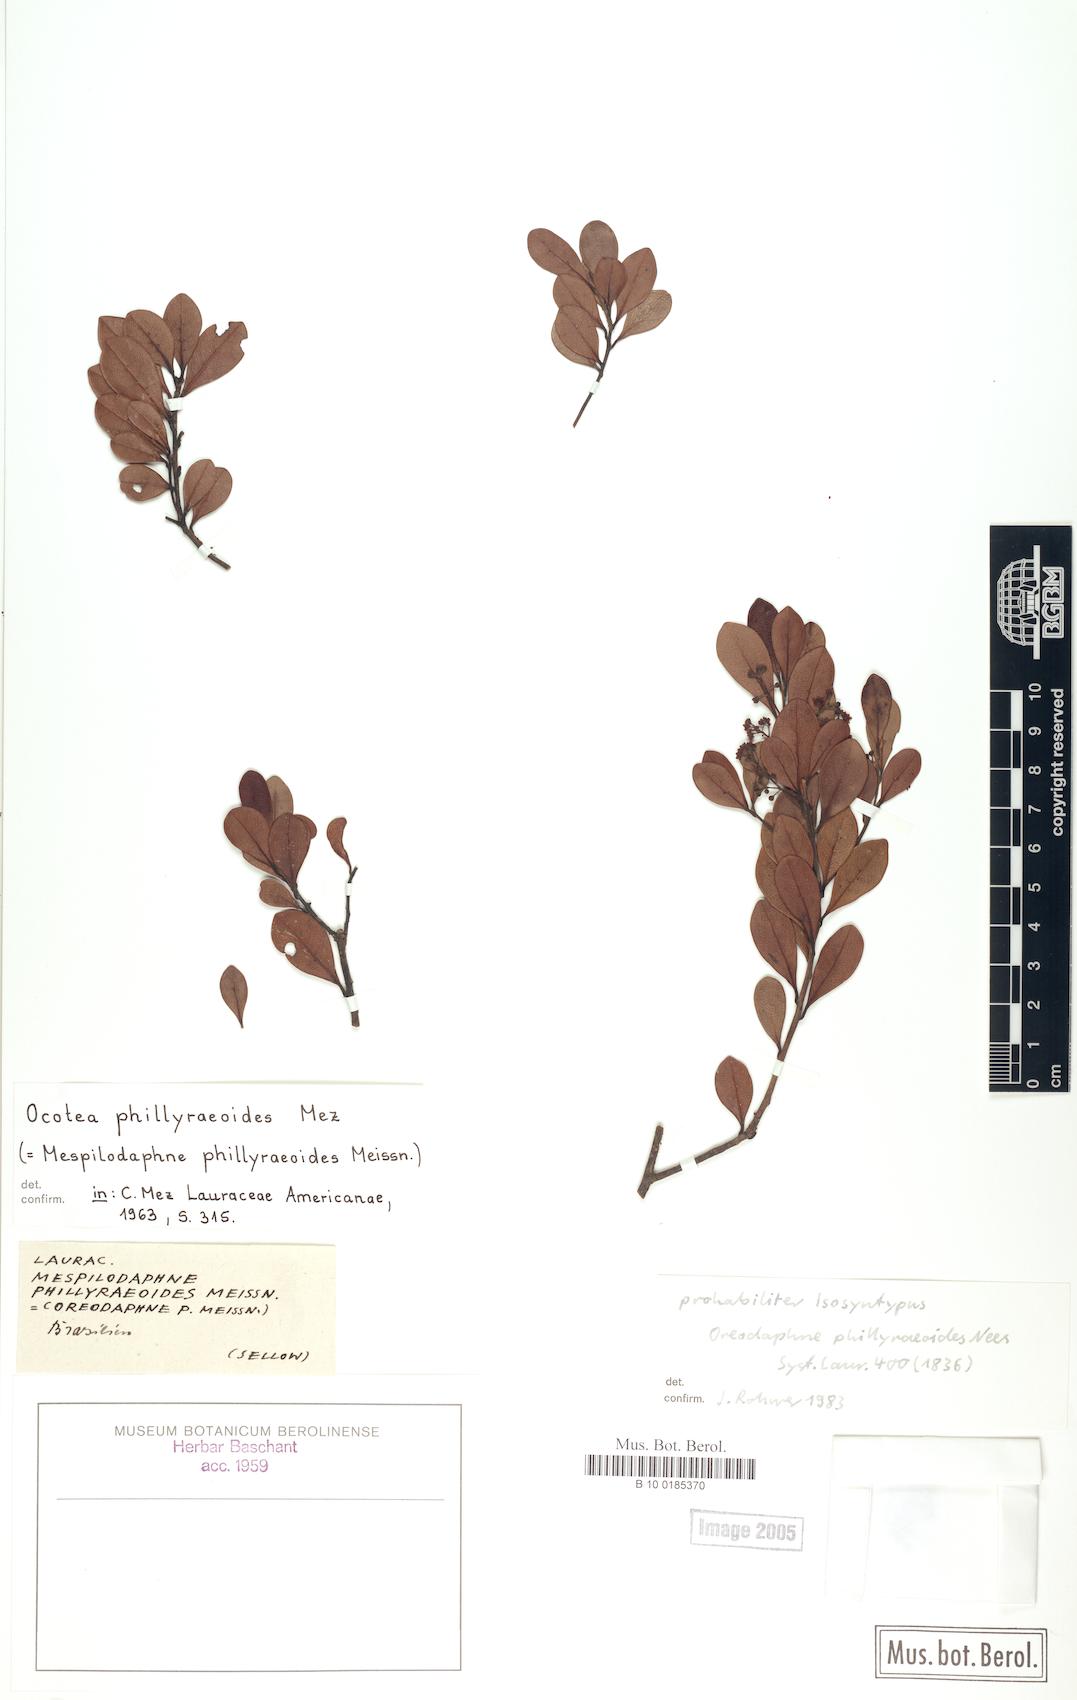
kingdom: Plantae
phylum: Tracheophyta
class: Magnoliopsida
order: Laurales
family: Lauraceae
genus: Mespilodaphne
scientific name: Mespilodaphne tristis
